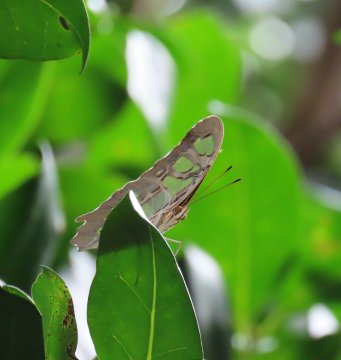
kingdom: Animalia
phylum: Arthropoda
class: Insecta
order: Lepidoptera
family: Nymphalidae
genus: Siproeta
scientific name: Siproeta stelenes
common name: Malachite
